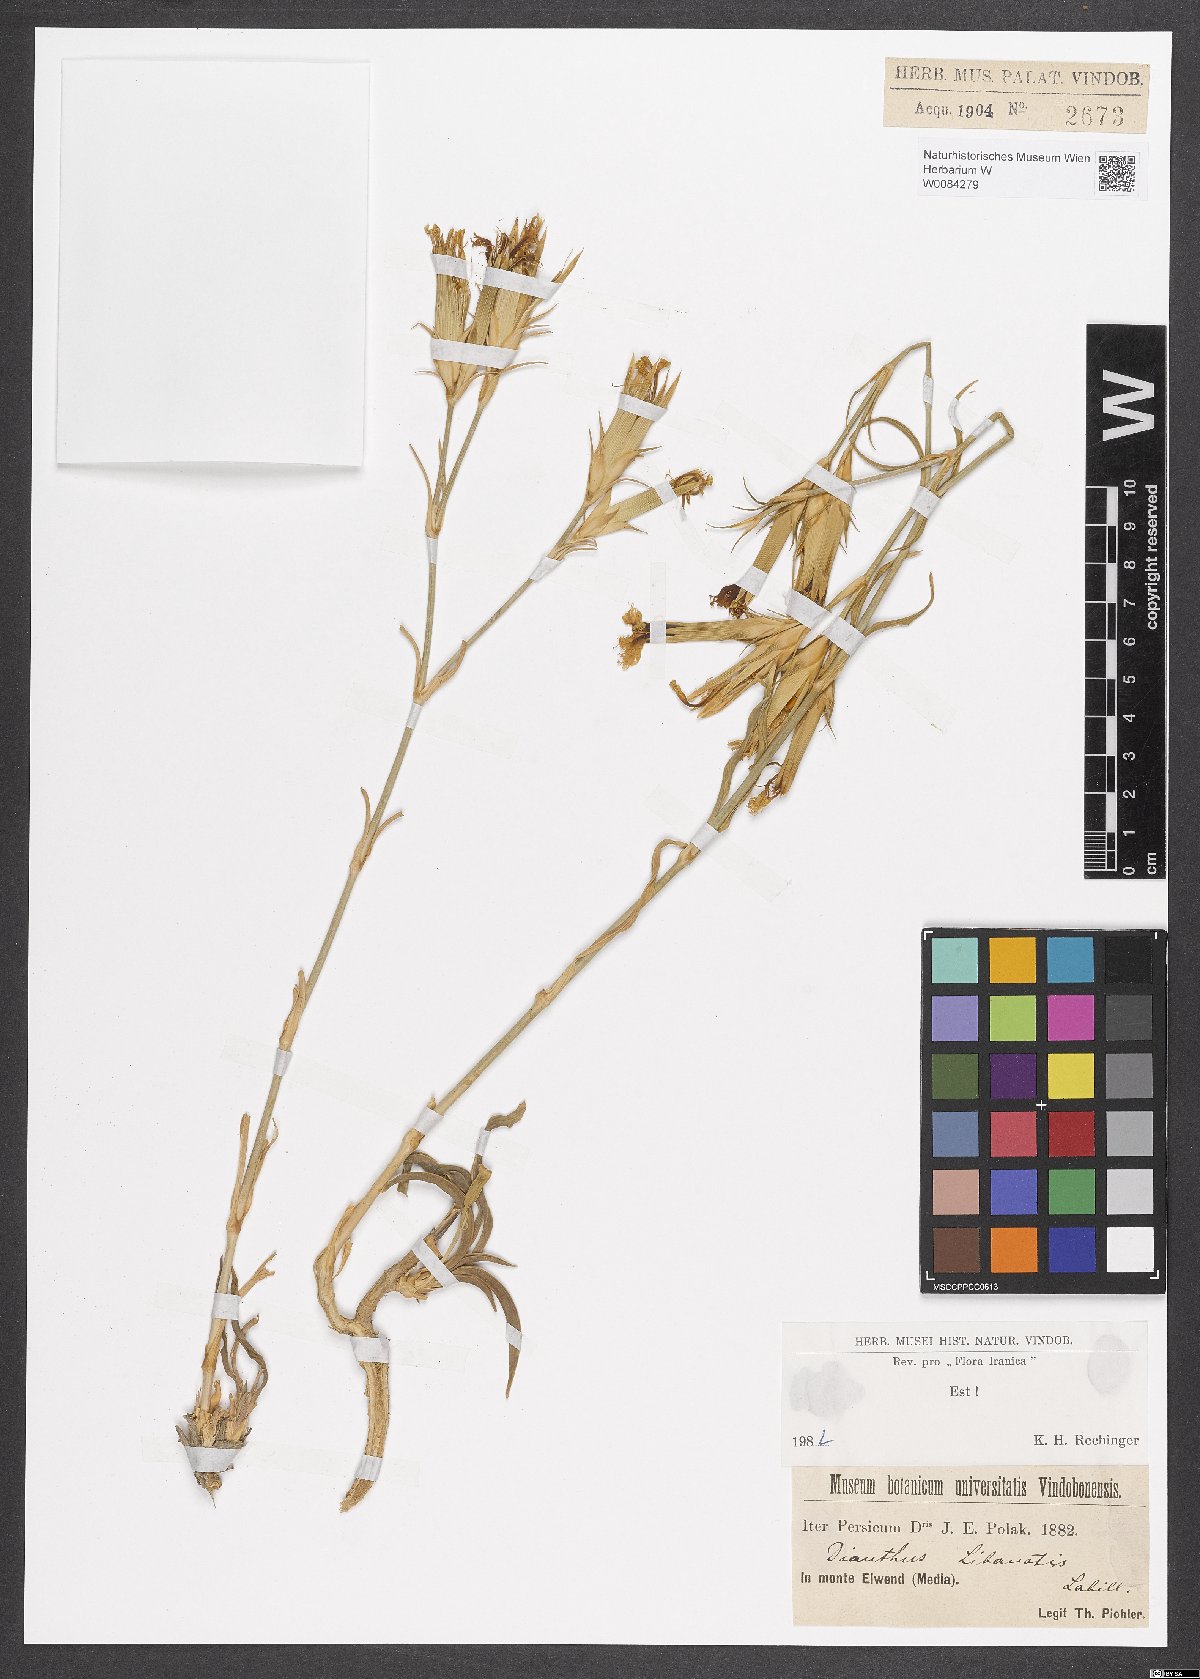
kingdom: Plantae
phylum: Tracheophyta
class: Magnoliopsida
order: Caryophyllales
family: Caryophyllaceae
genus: Dianthus
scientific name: Dianthus libanotis
